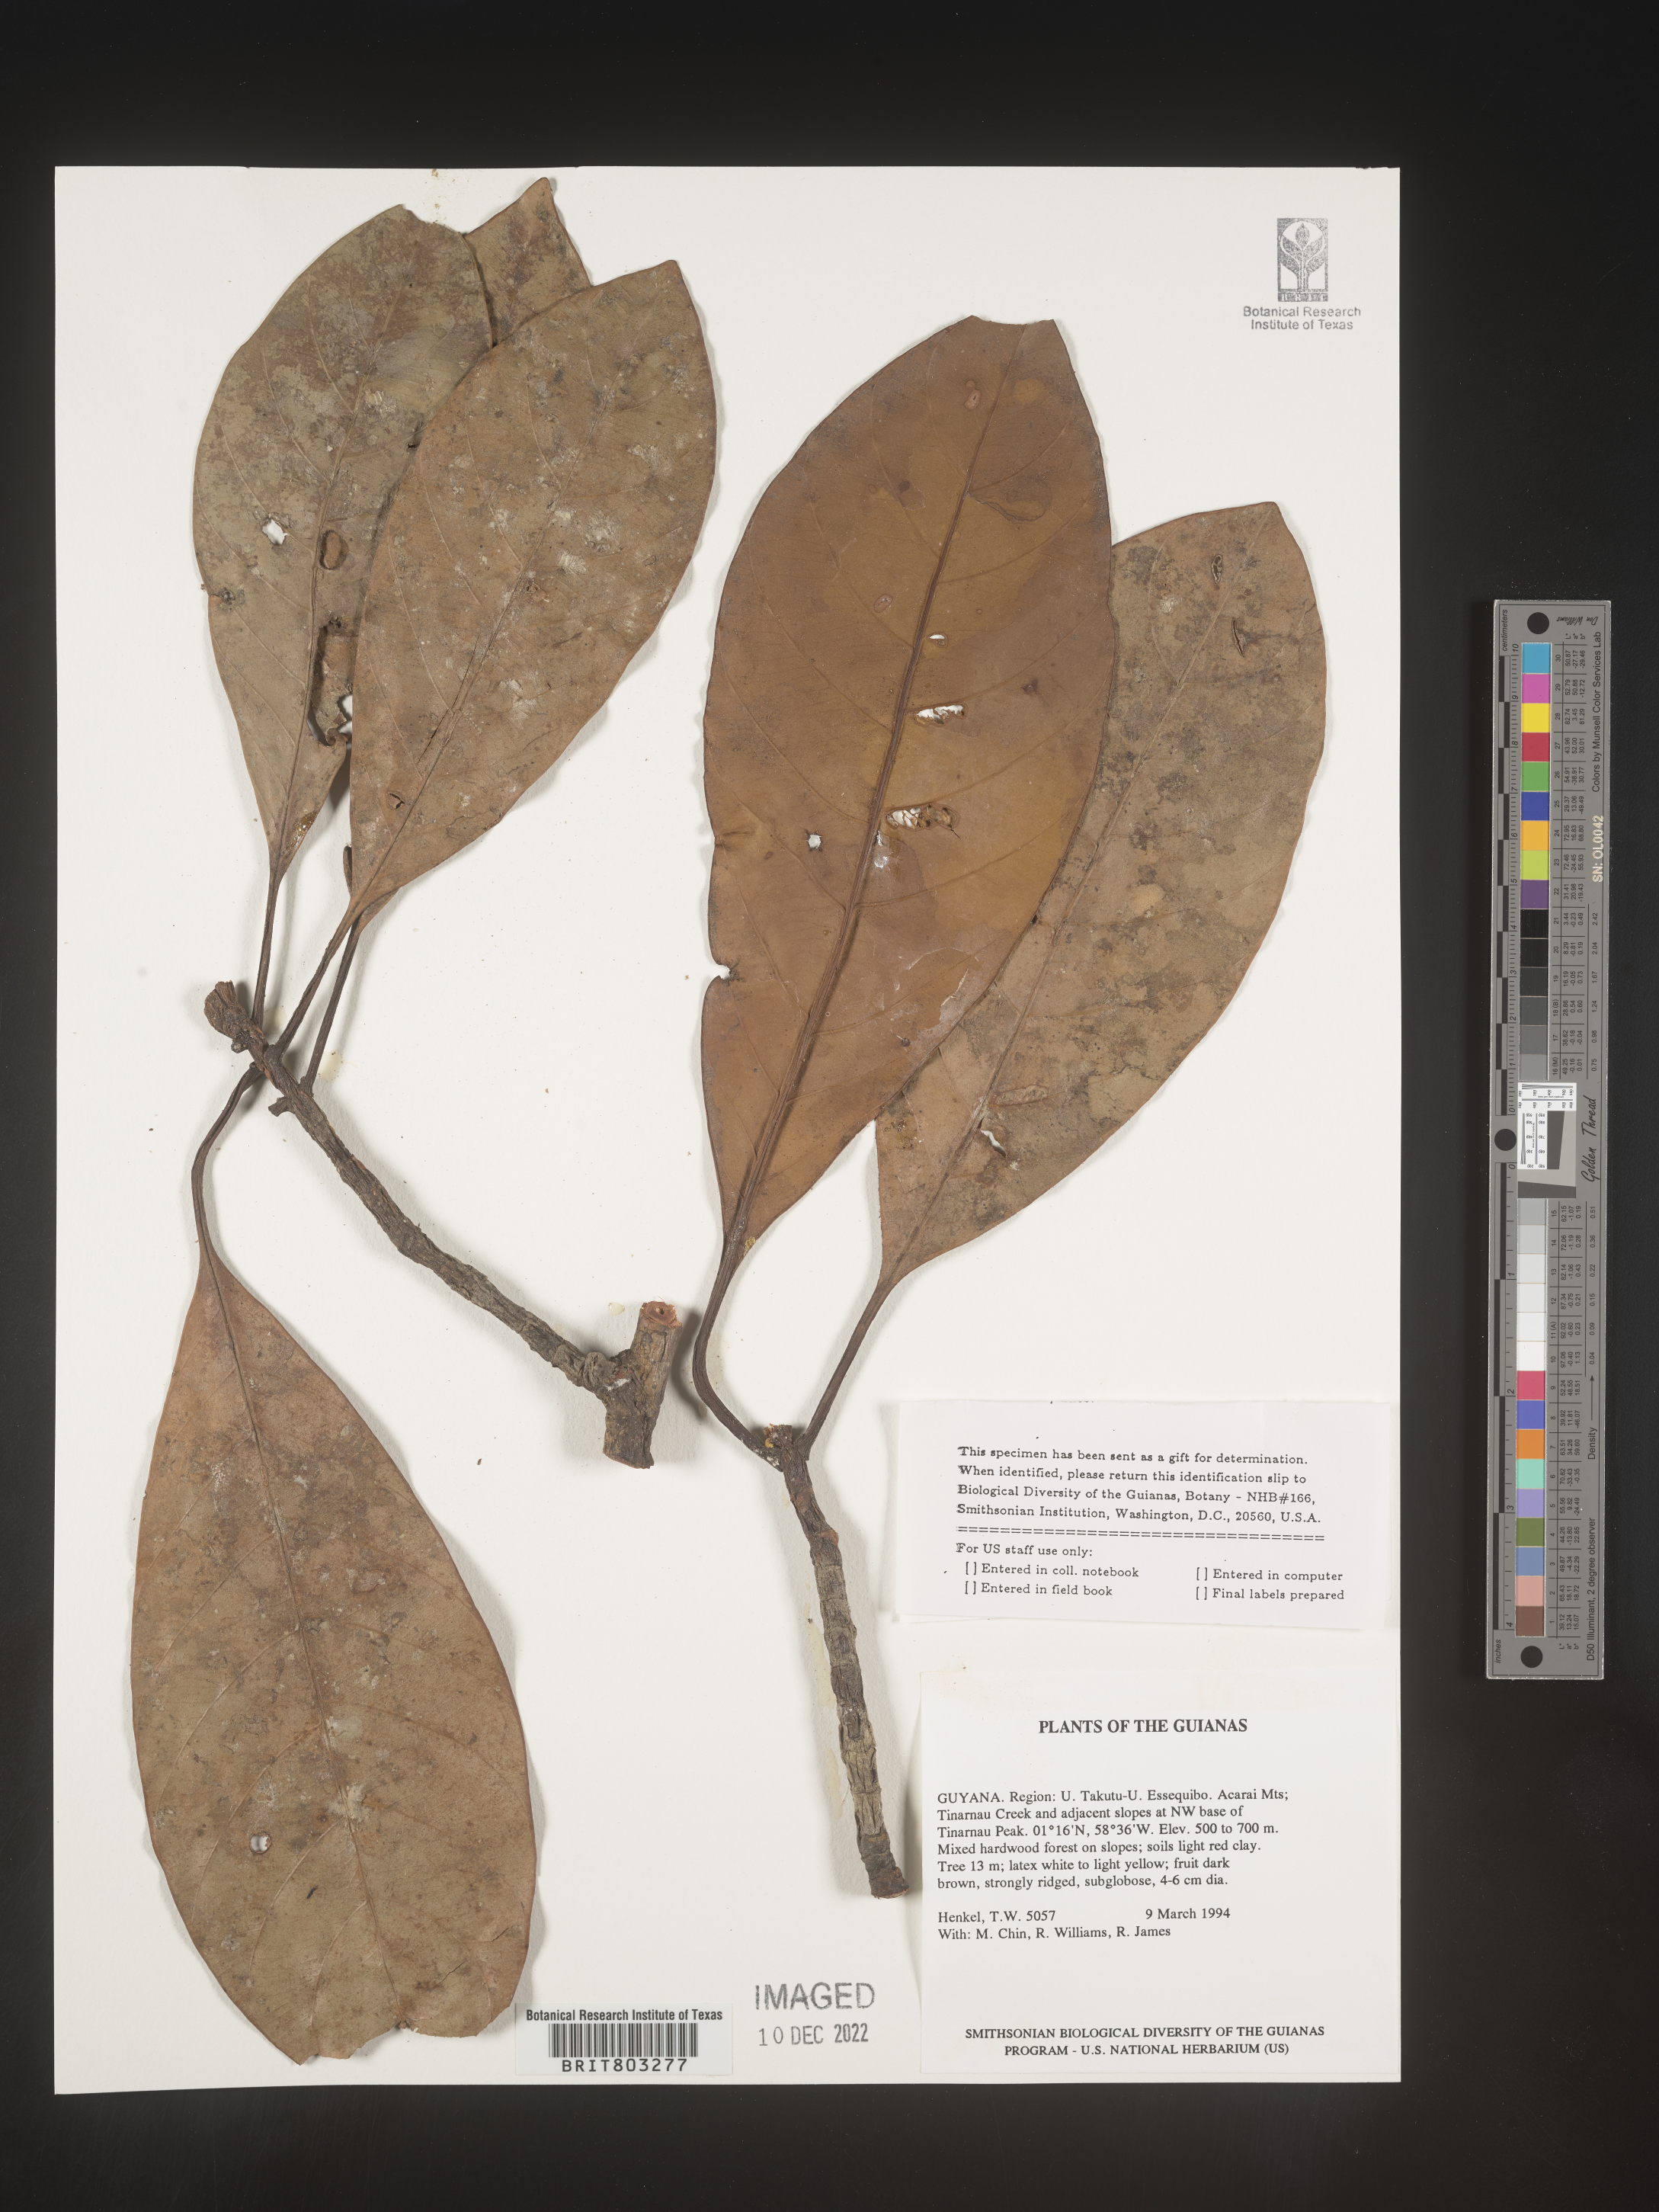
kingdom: Plantae
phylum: Tracheophyta
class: Magnoliopsida
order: Malpighiales
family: Clusiaceae
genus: Tovomita
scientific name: Tovomita
